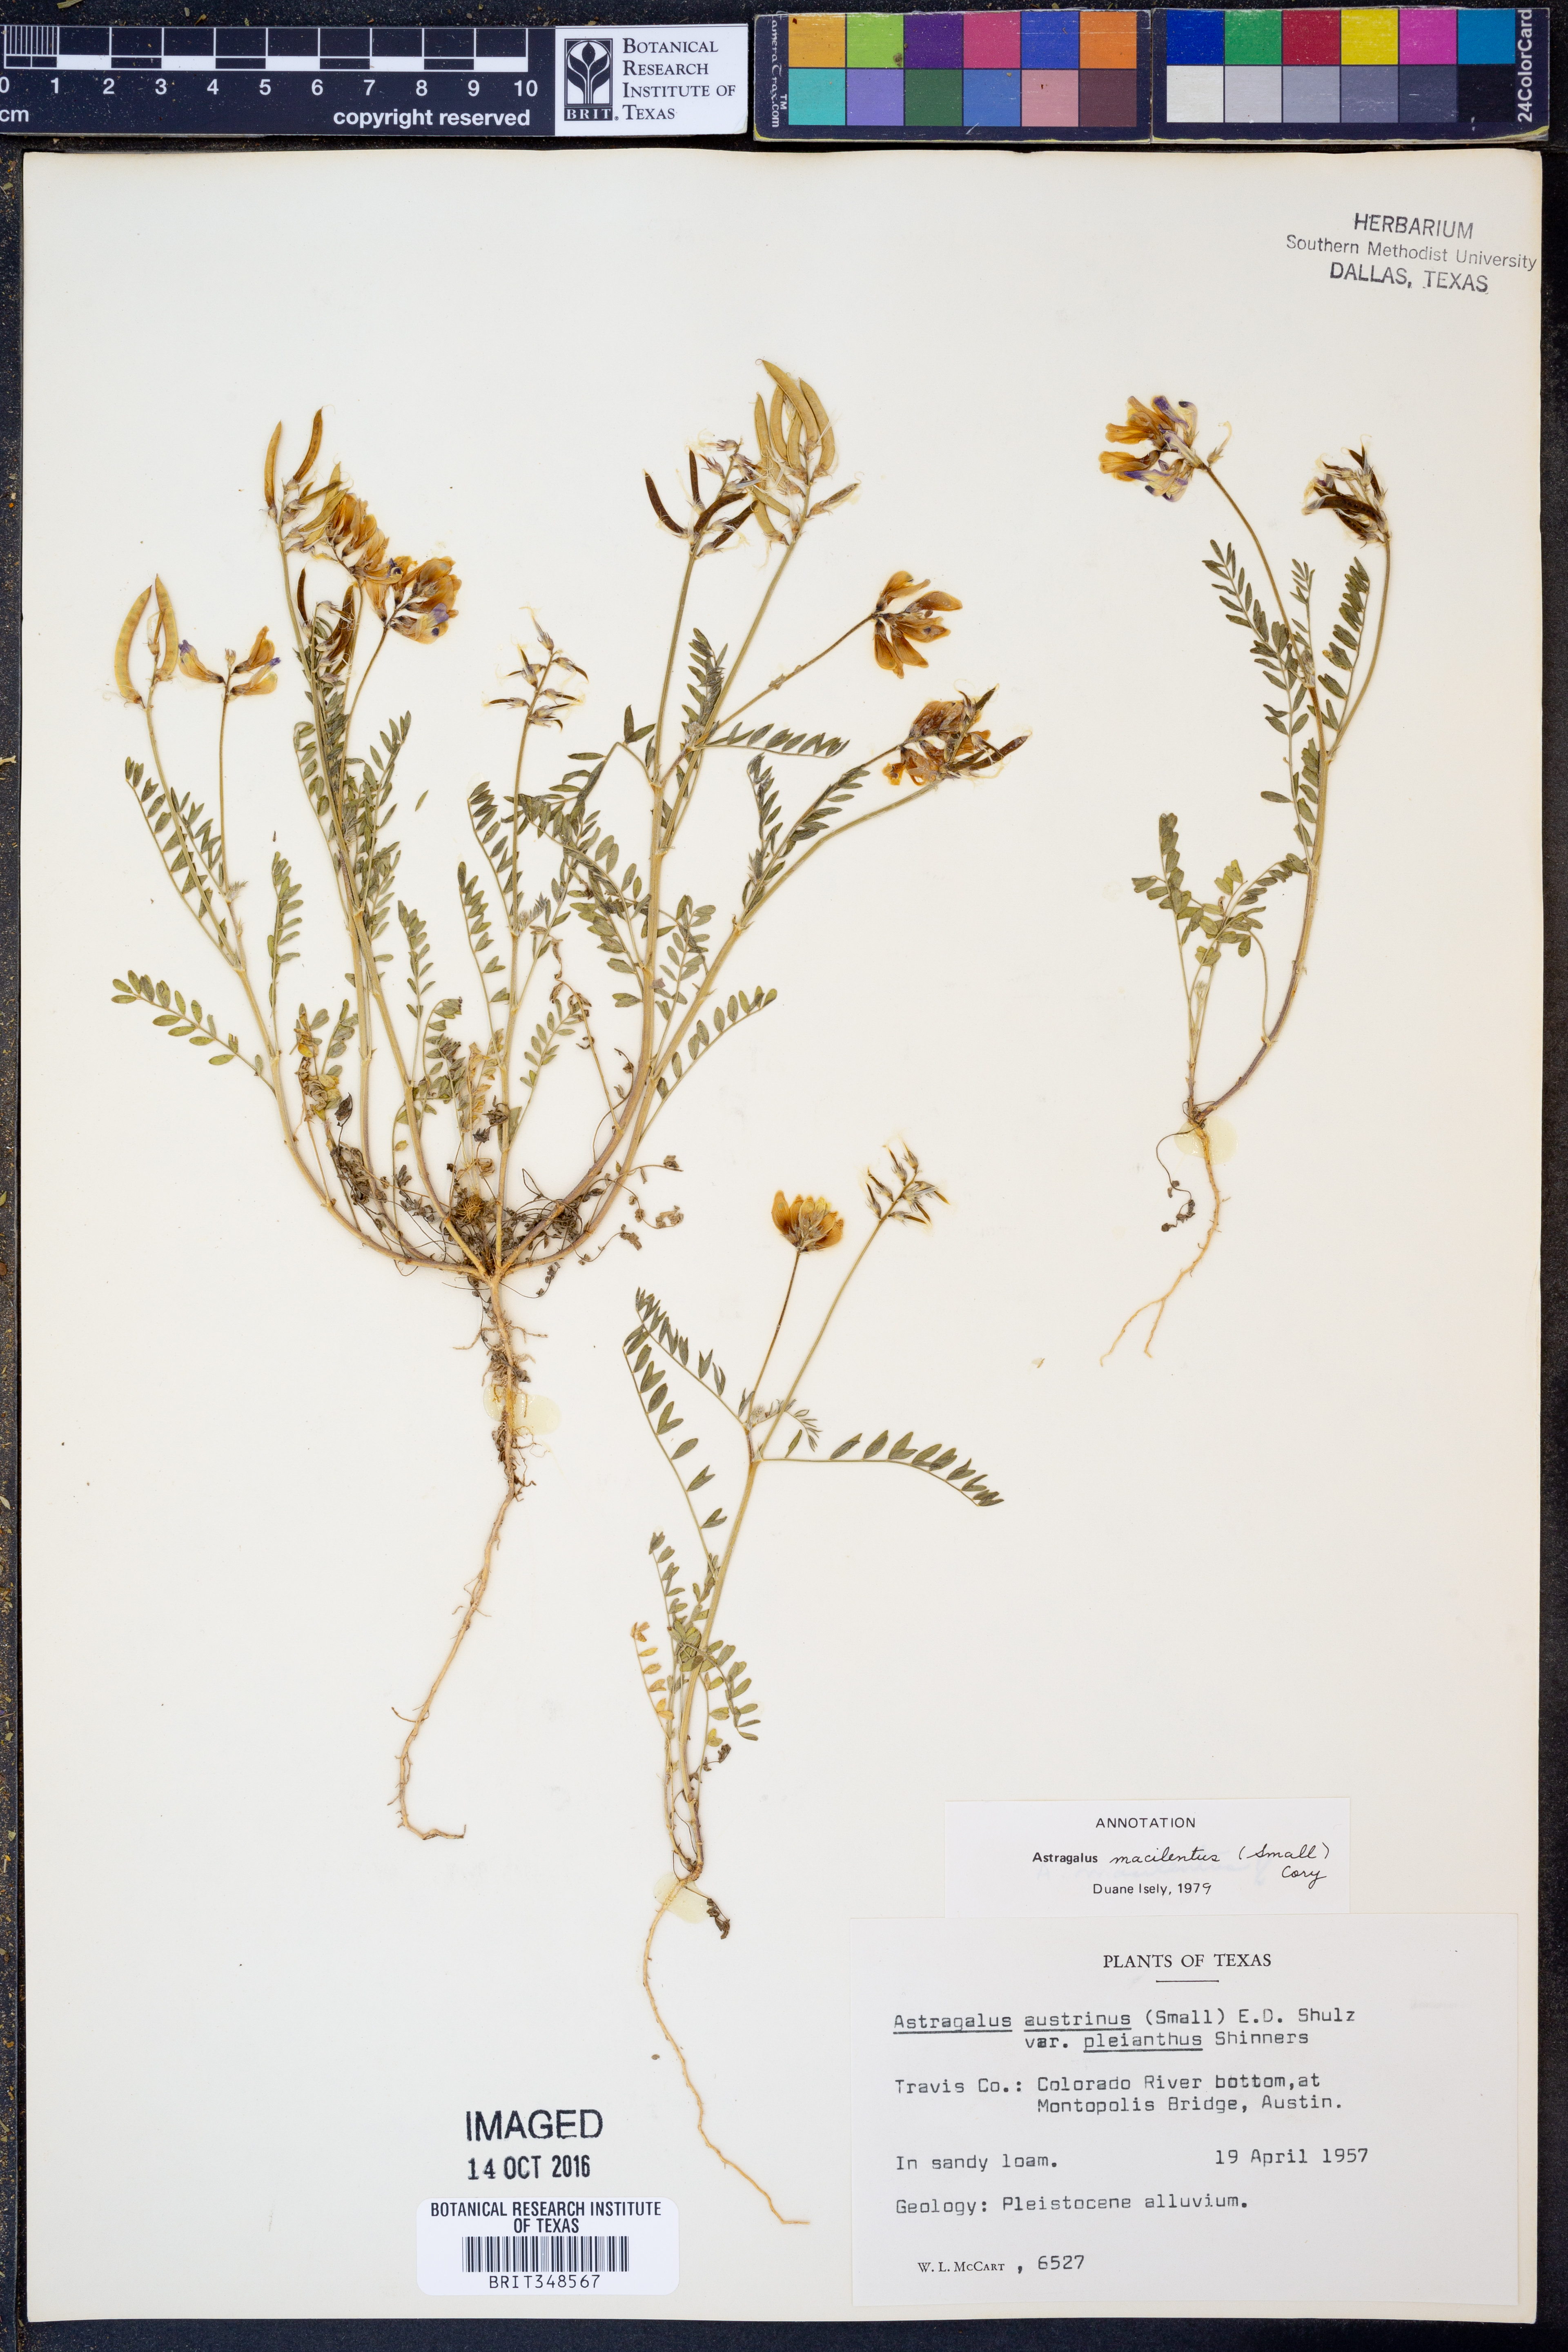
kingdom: Plantae
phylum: Tracheophyta
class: Magnoliopsida
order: Fabales
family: Fabaceae
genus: Astragalus
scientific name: Astragalus nuttallianus
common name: Smallflowered milkvetch
